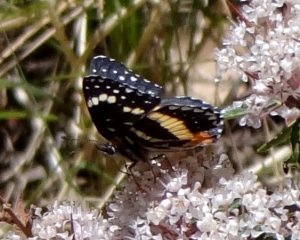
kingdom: Animalia
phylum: Arthropoda
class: Insecta
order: Lepidoptera
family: Nymphalidae
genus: Chlosyne
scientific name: Chlosyne lacinia
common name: Bordered Patch
